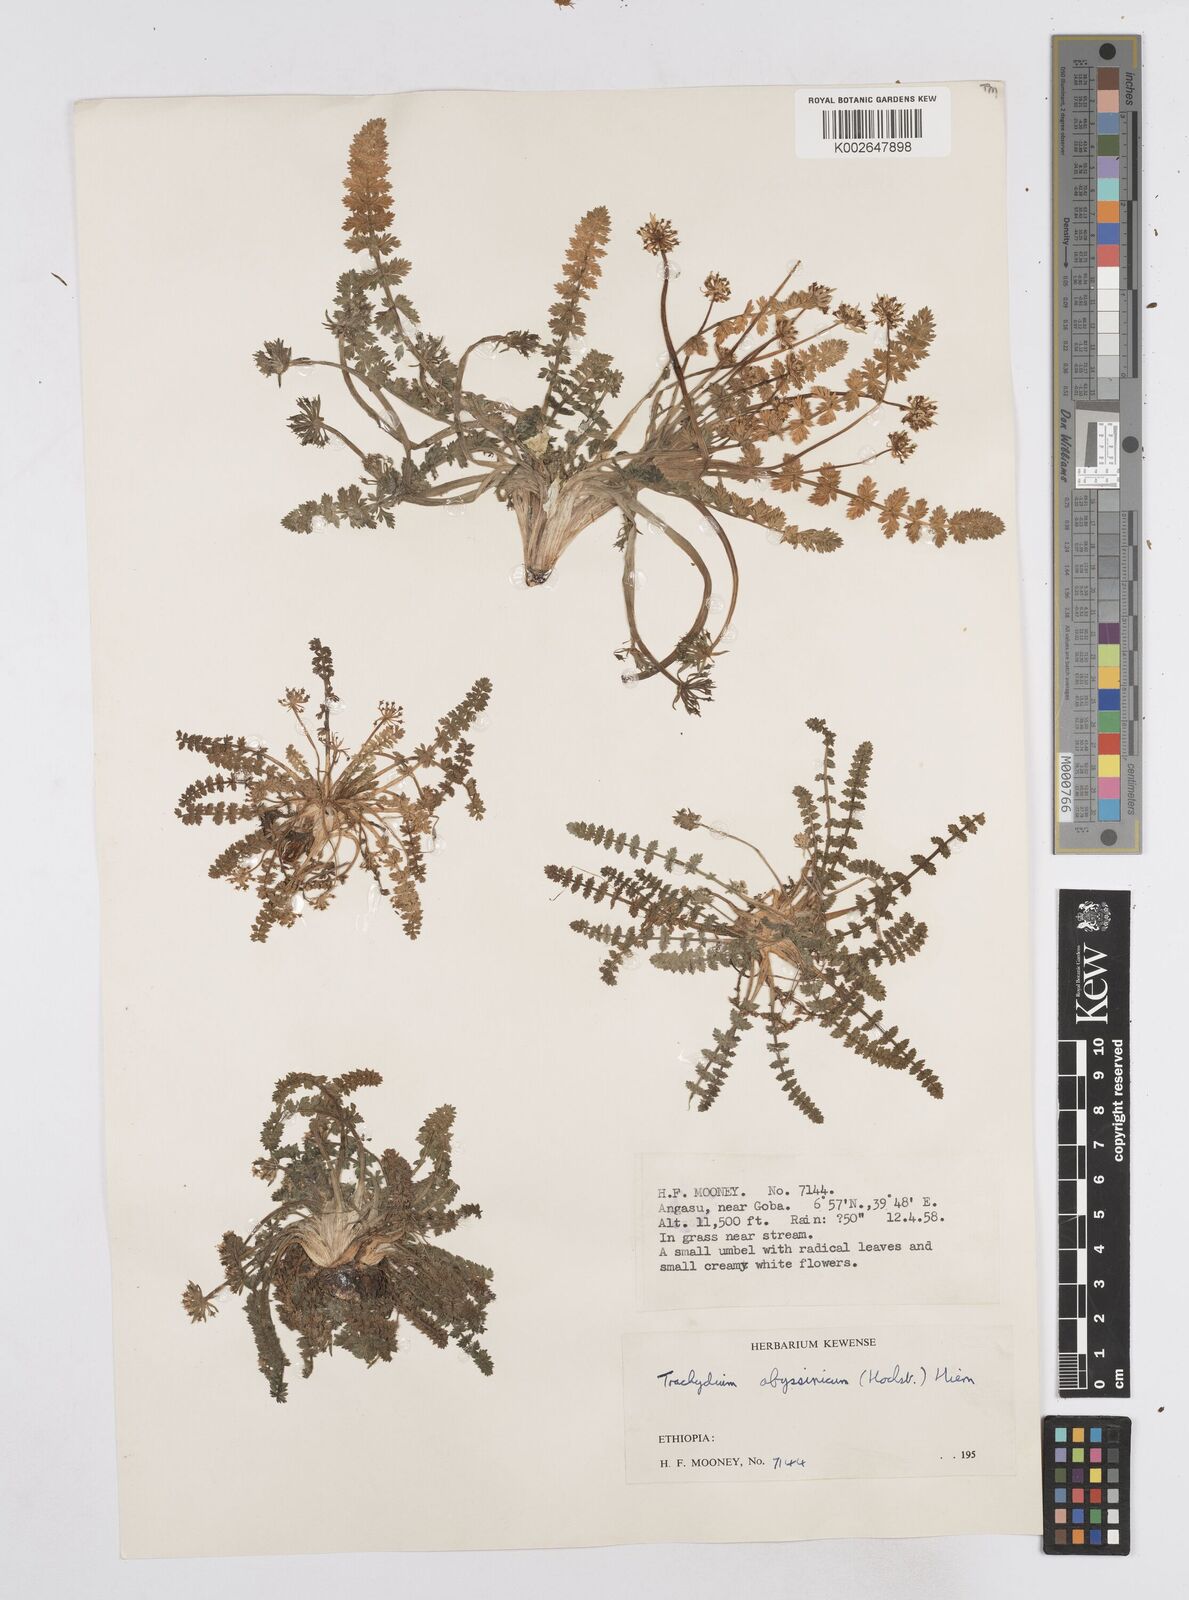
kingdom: Plantae
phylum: Tracheophyta
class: Magnoliopsida
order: Apiales
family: Apiaceae
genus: Haplosciadium
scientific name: Haplosciadium abyssinicum
